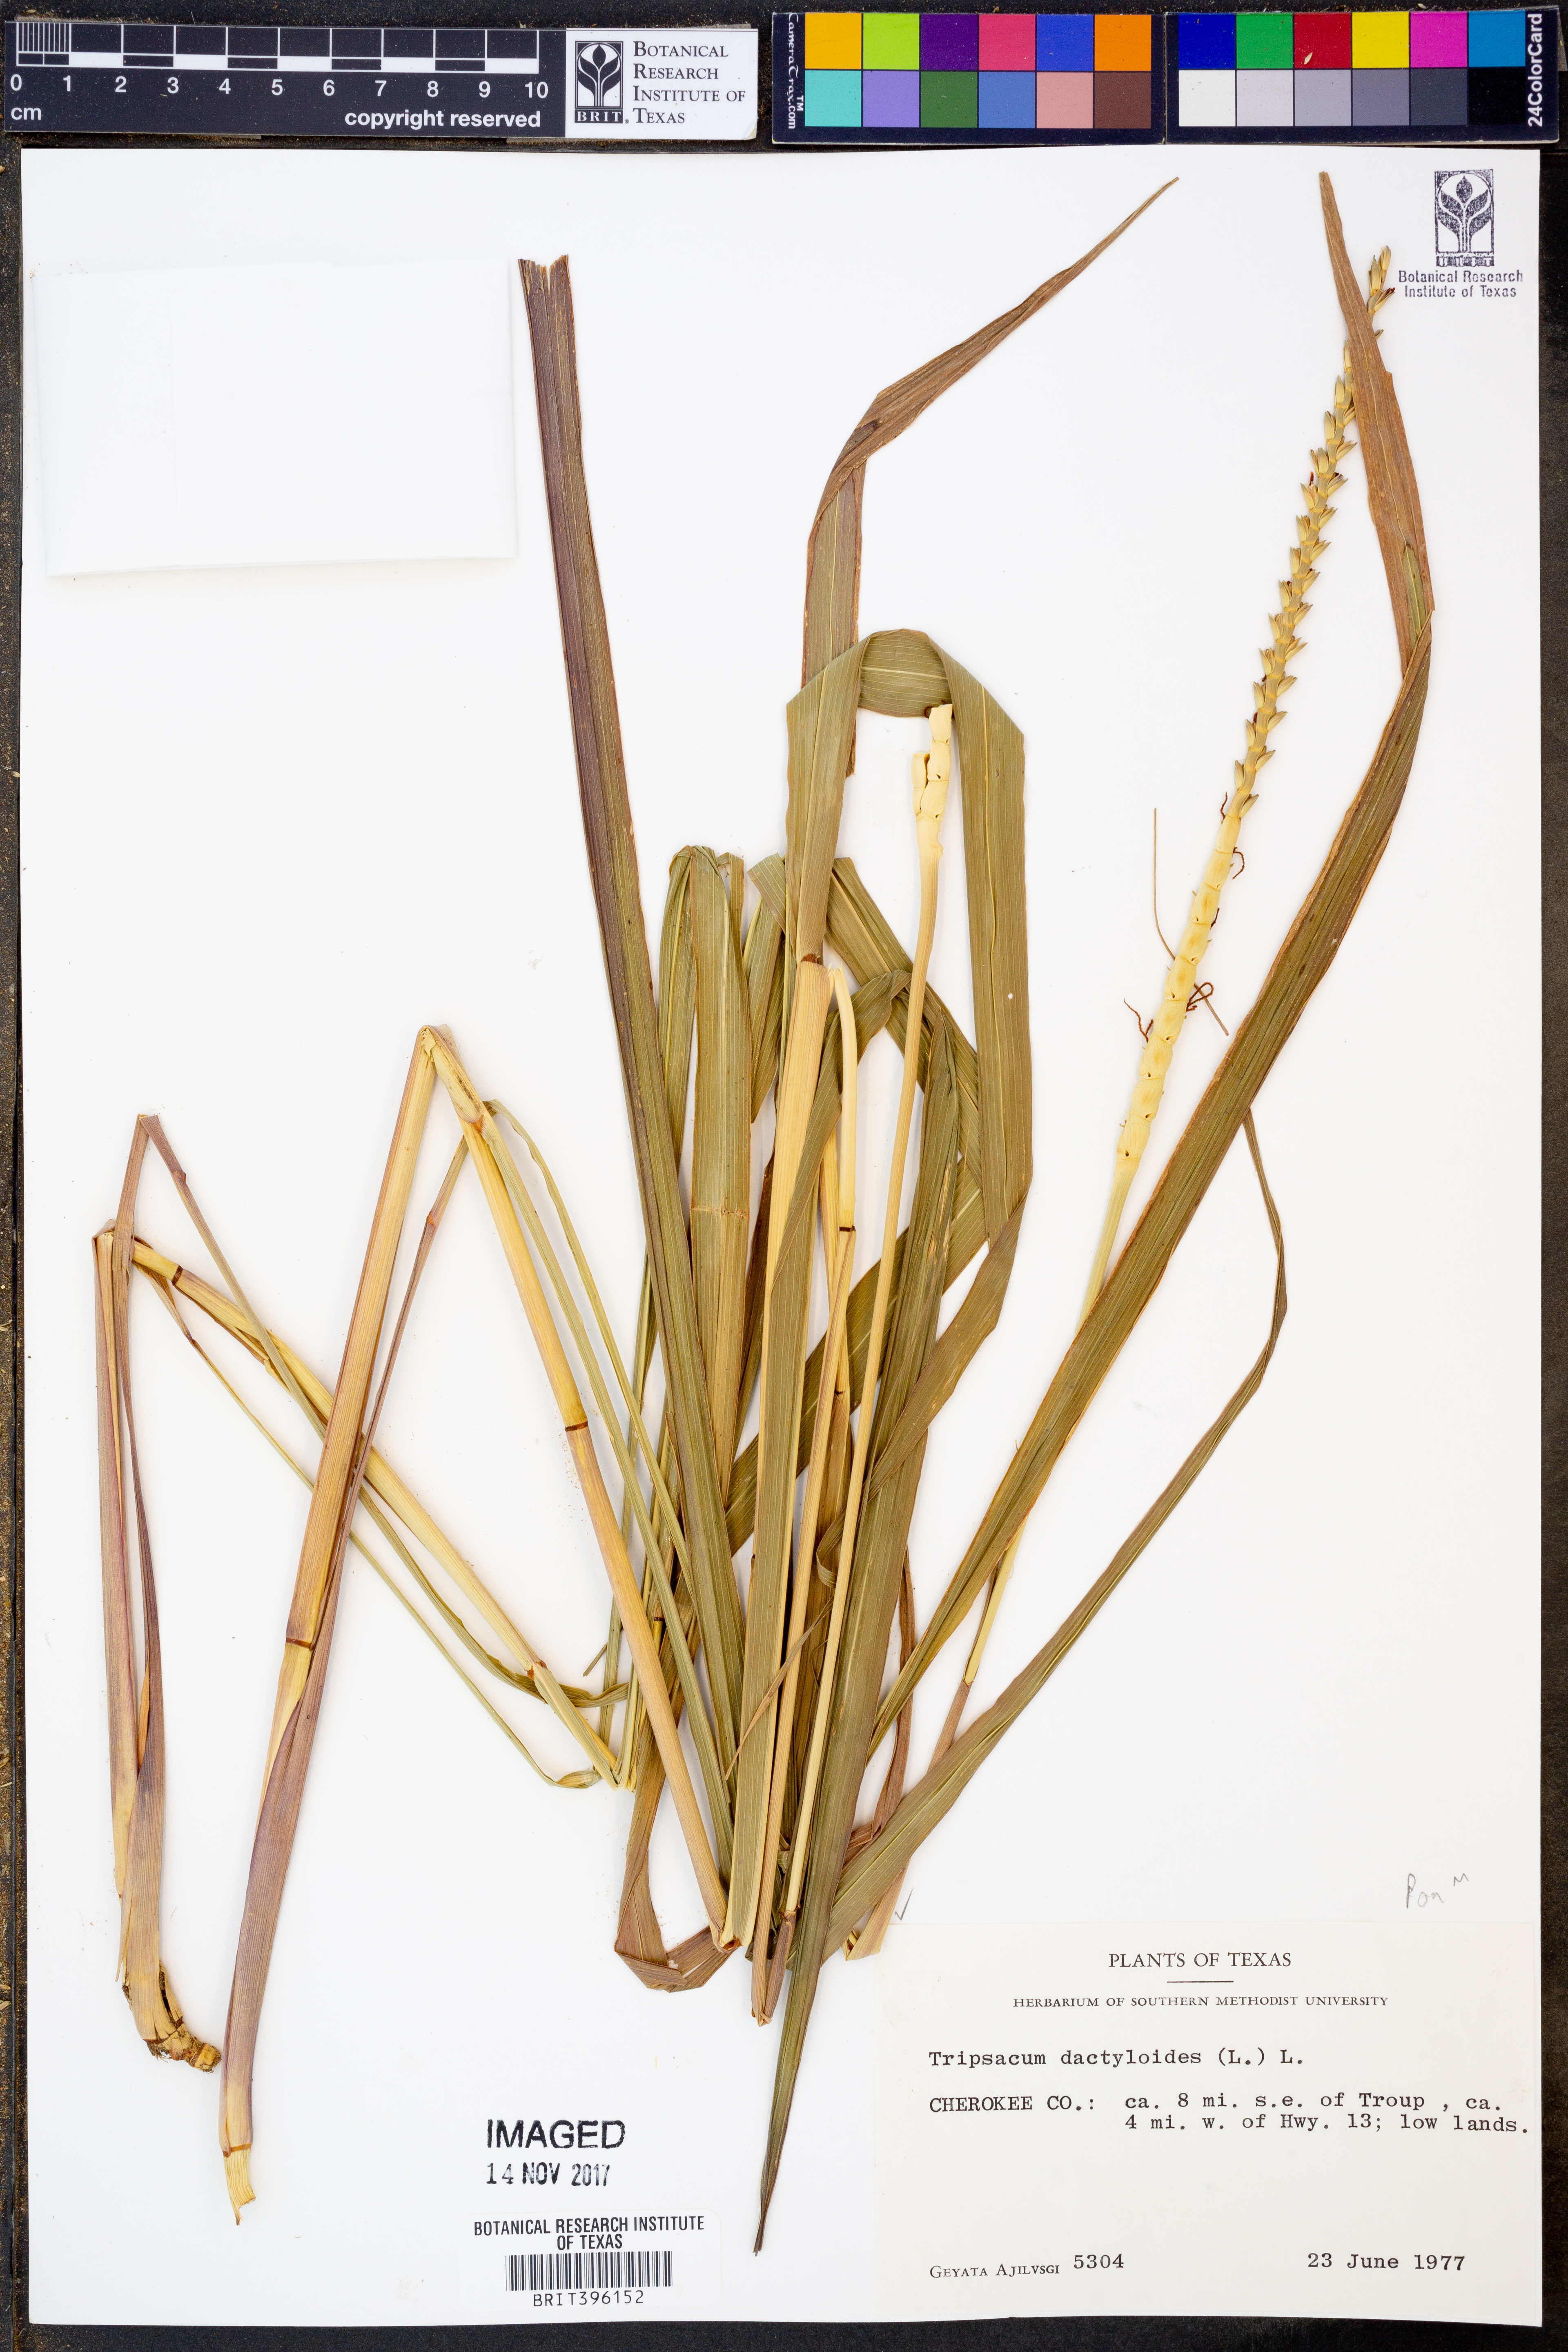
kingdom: Plantae
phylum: Tracheophyta
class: Liliopsida
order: Poales
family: Poaceae
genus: Tripsacum
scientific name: Tripsacum dactyloides
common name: Buffalo-grass
